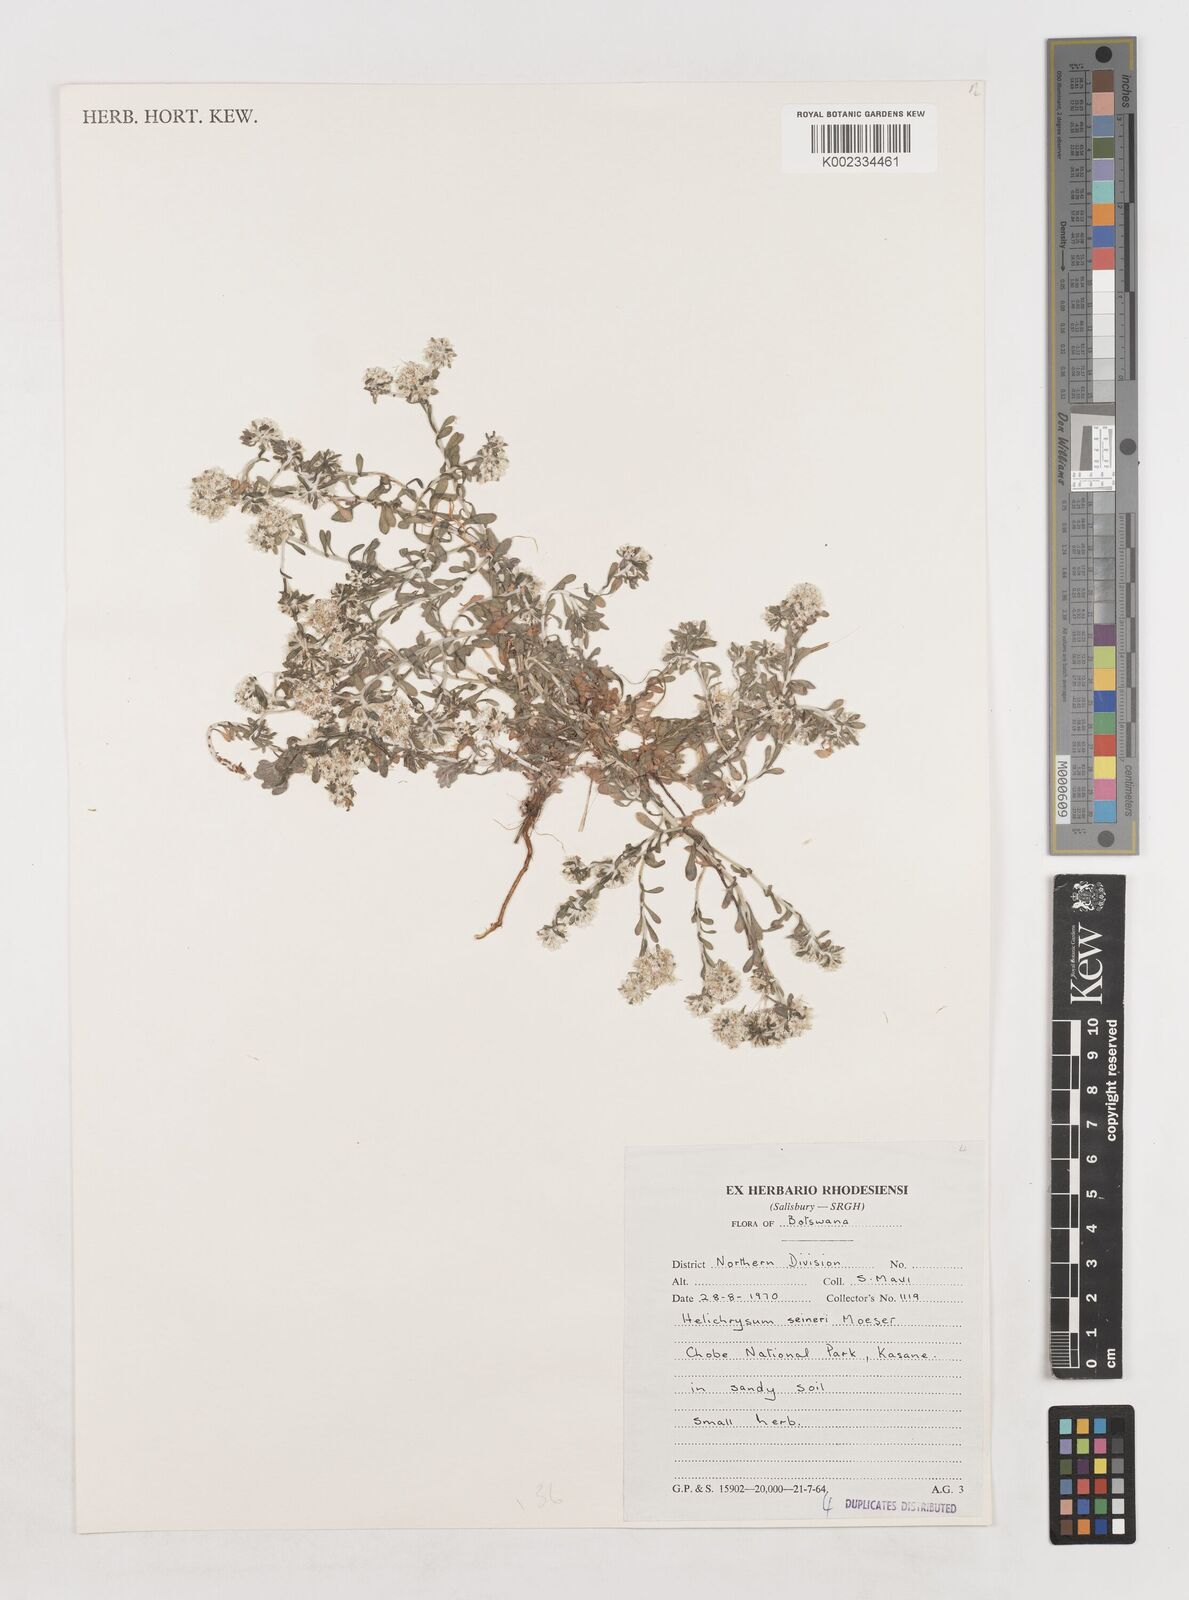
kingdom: Plantae
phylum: Tracheophyta
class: Magnoliopsida
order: Asterales
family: Asteraceae
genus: Helichrysum
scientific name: Helichrysum lineare
